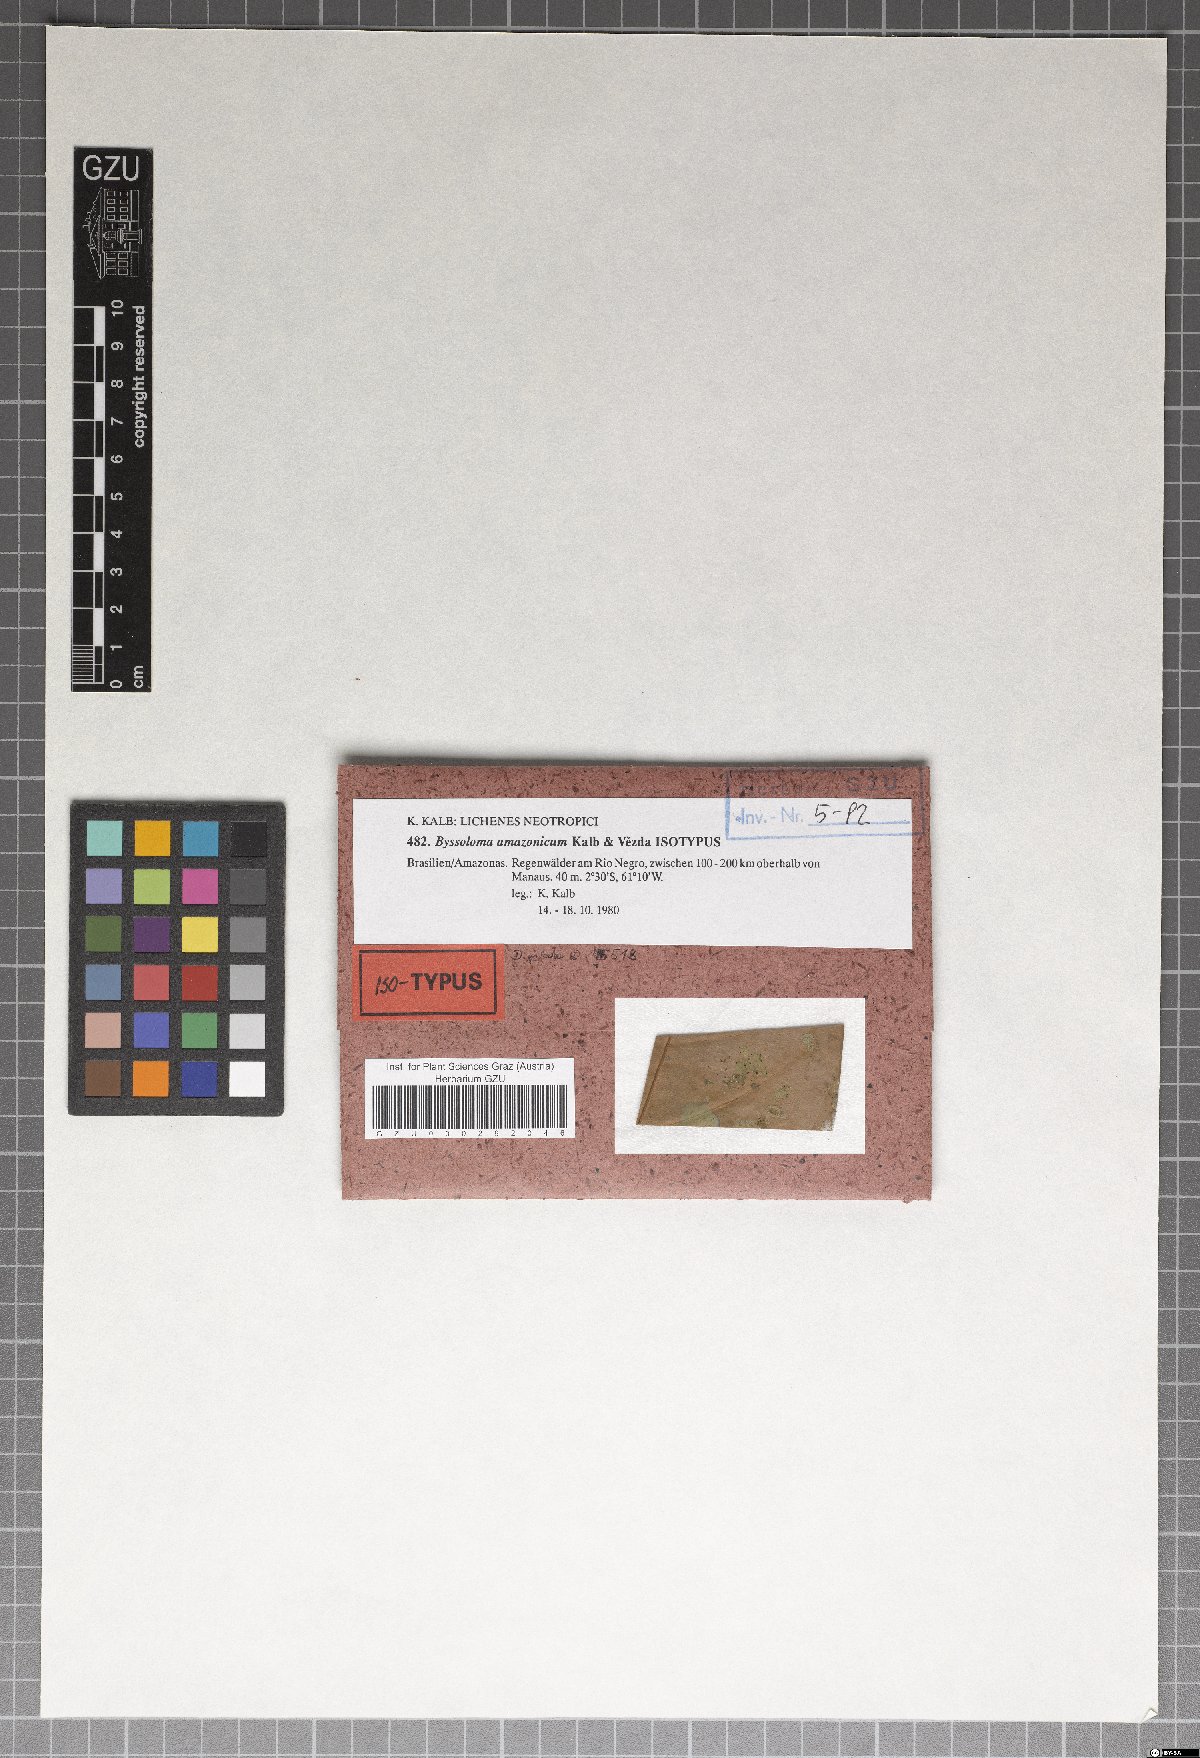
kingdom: Fungi
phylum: Ascomycota
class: Lecanoromycetes
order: Lecanorales
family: Byssolomataceae
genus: Byssoloma
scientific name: Byssoloma amazonicum
